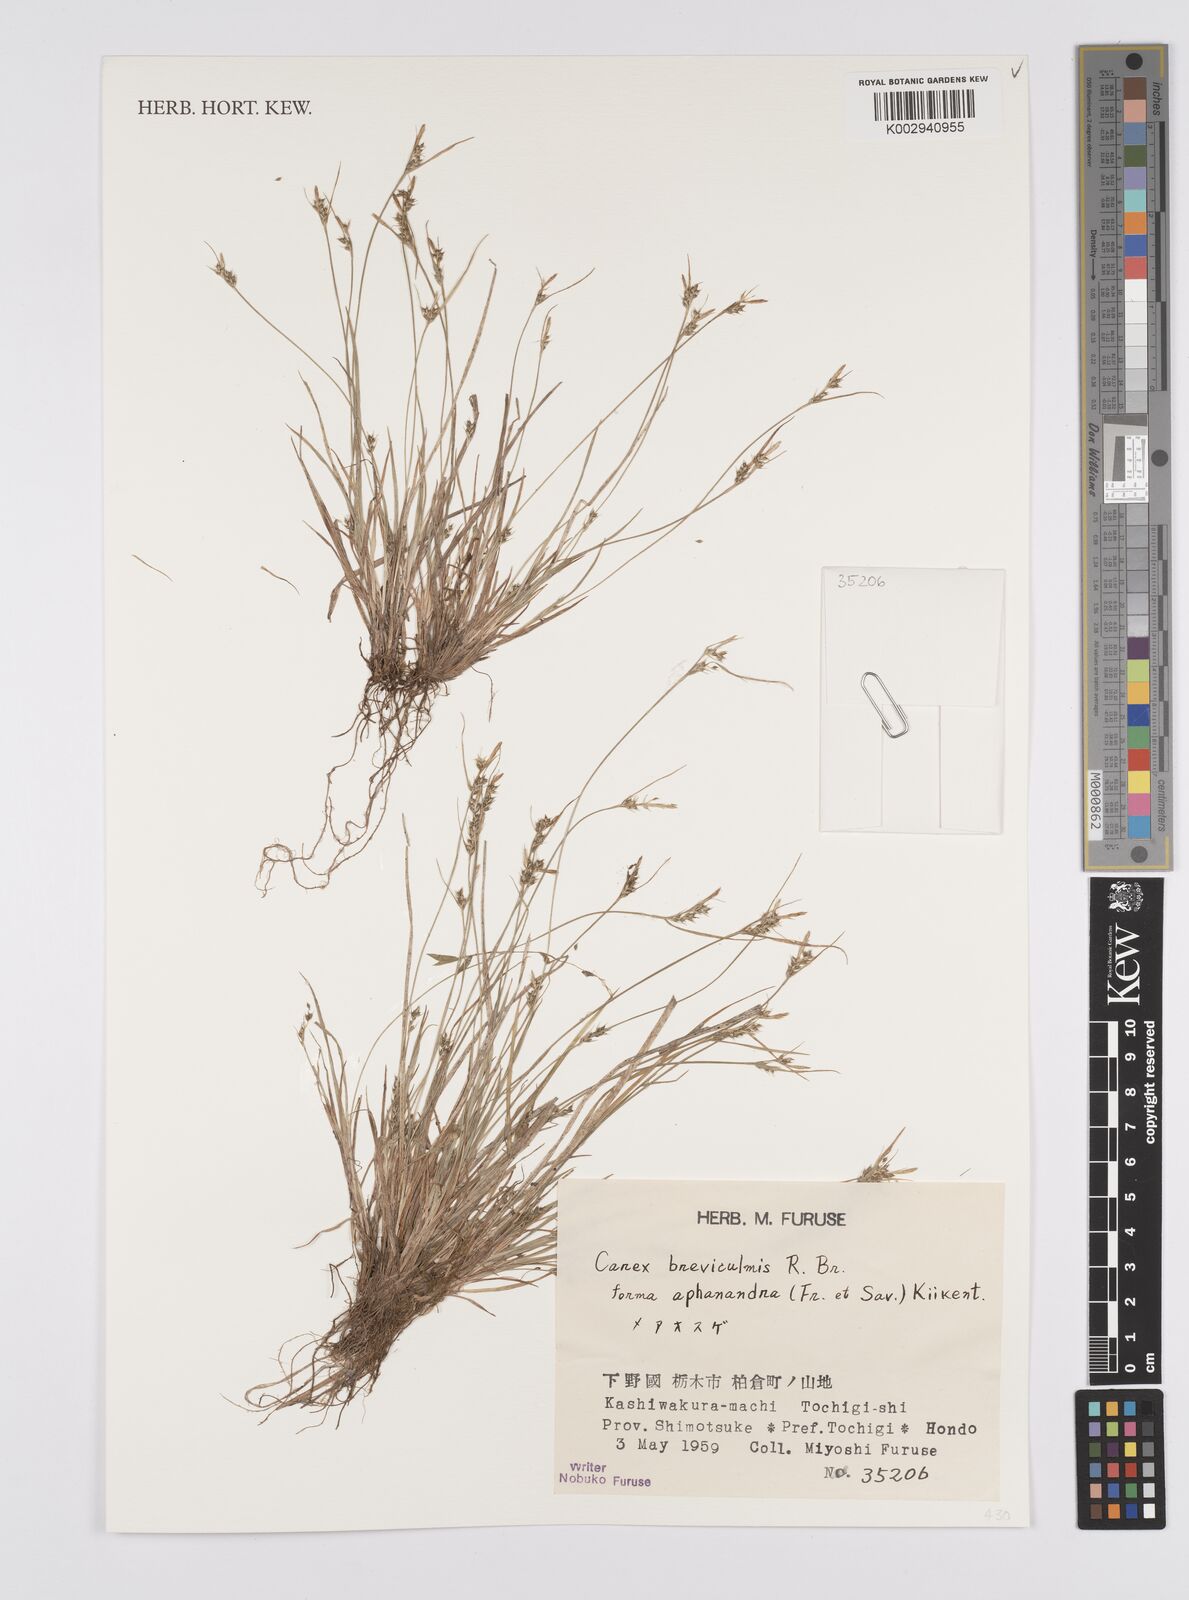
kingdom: Plantae
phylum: Tracheophyta
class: Liliopsida
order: Poales
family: Cyperaceae
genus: Carex
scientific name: Carex breviculmis
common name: Asian shortstem sedge
